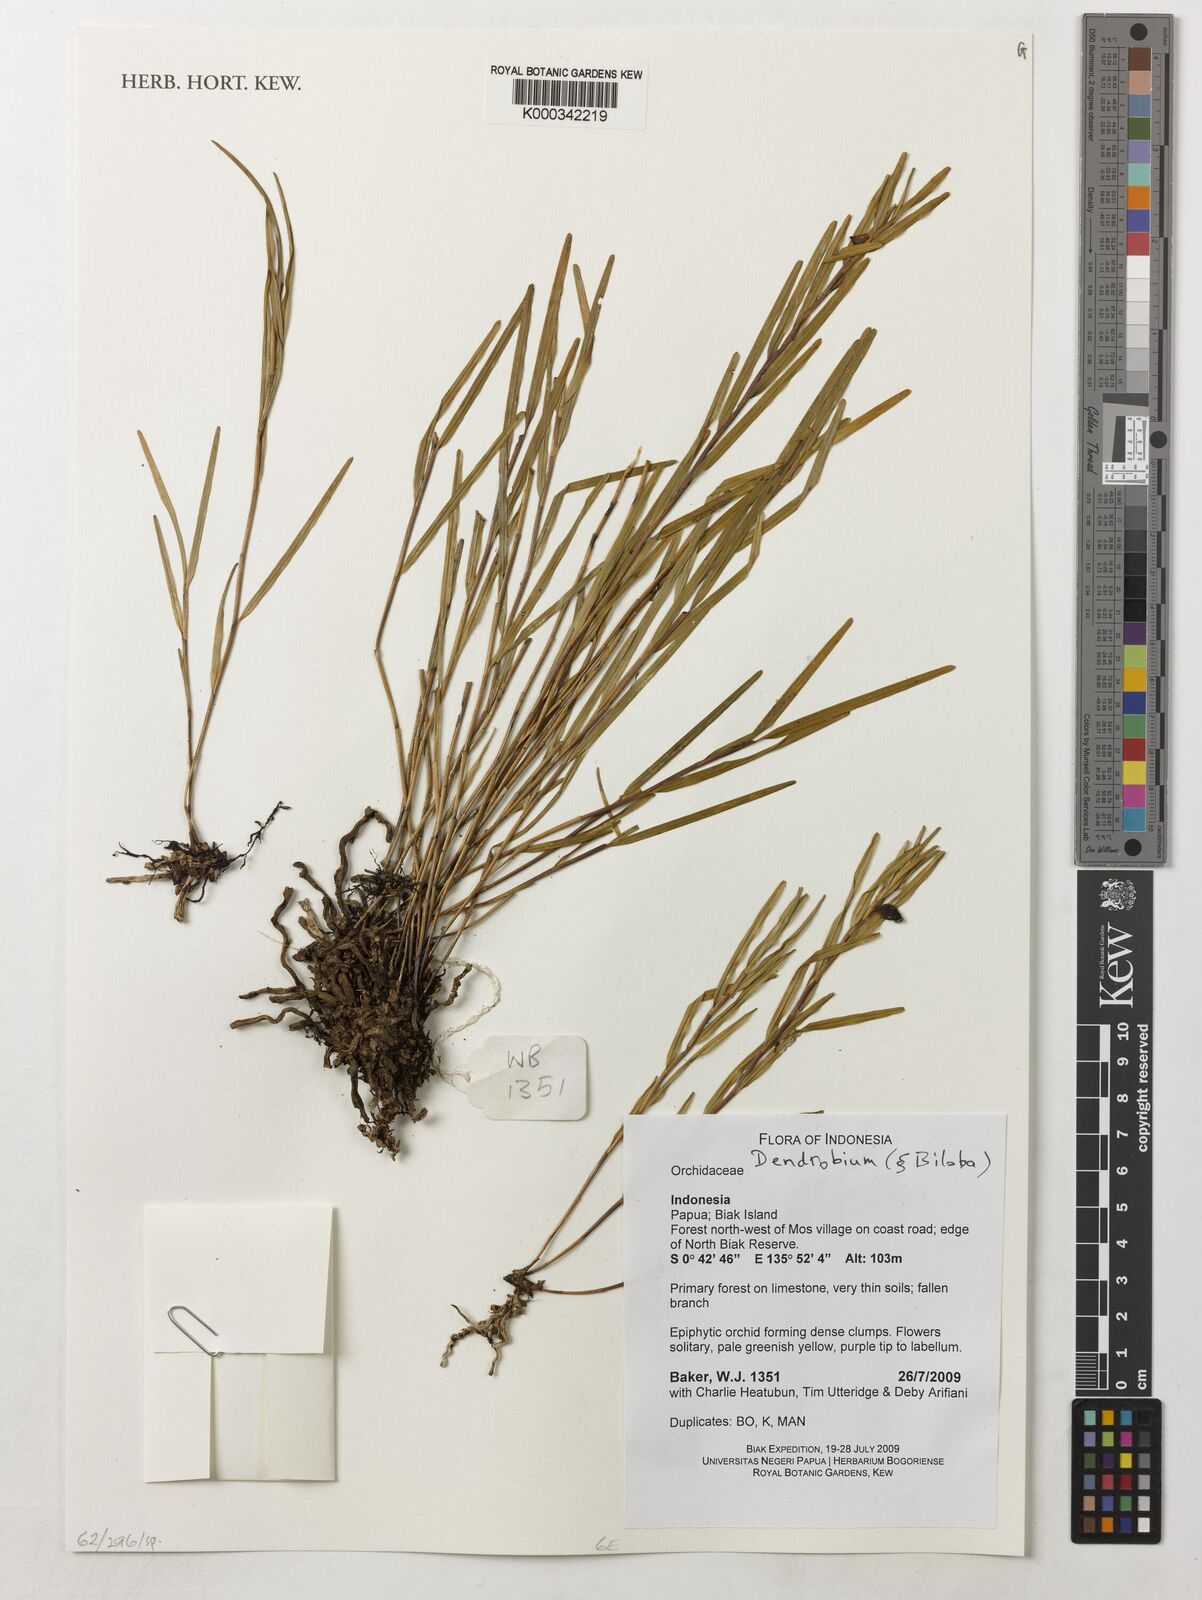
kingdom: Plantae
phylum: Tracheophyta
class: Liliopsida
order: Asparagales
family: Orchidaceae
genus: Dendrobium
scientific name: Dendrobium
